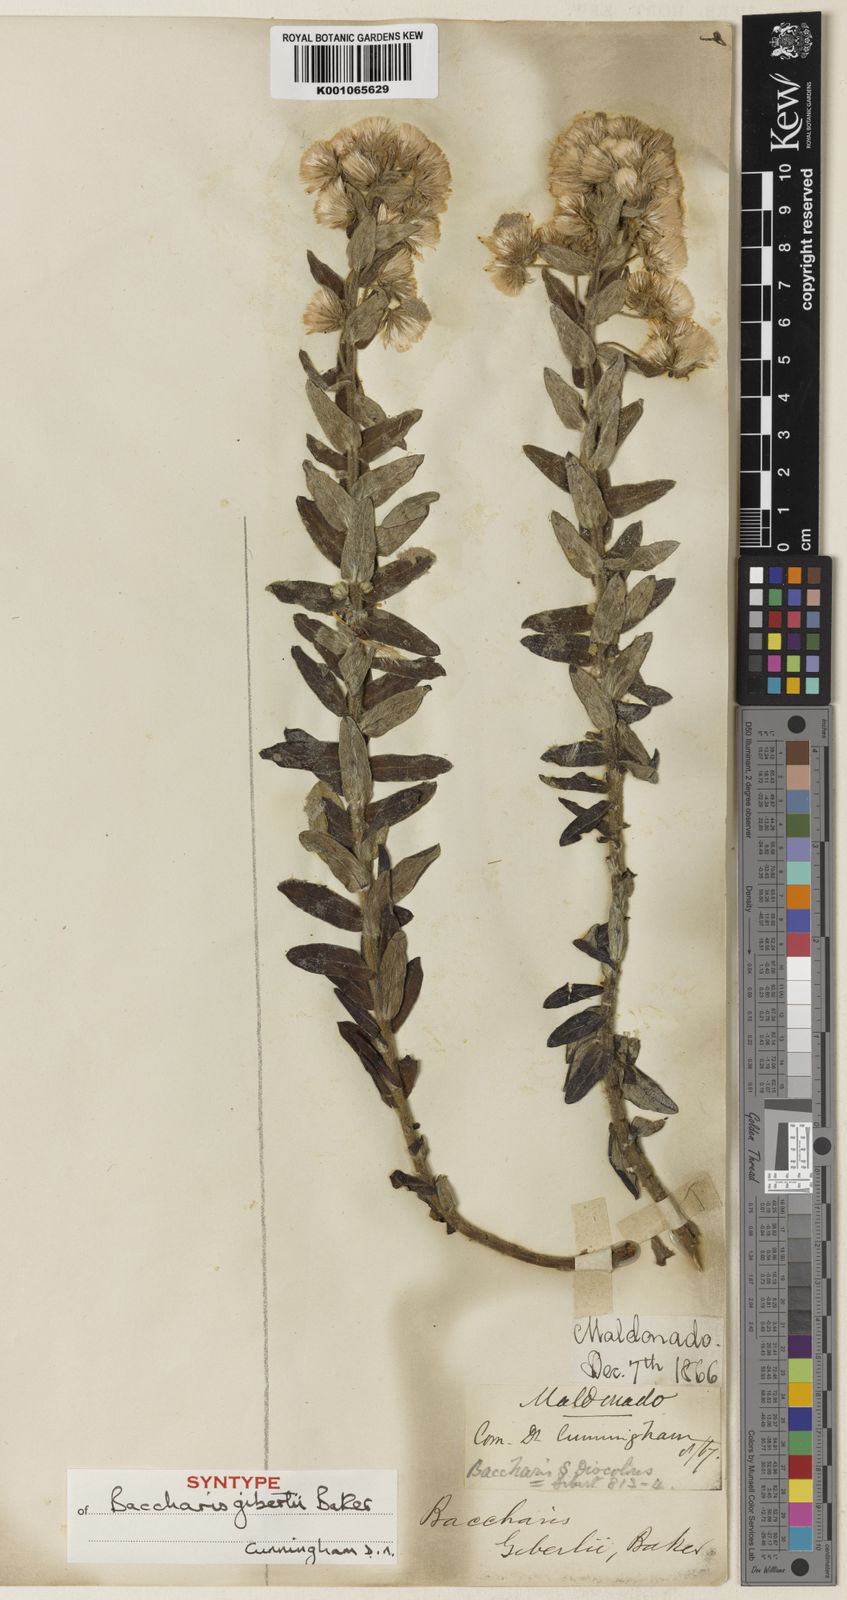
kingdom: Plantae
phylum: Tracheophyta
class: Magnoliopsida
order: Asterales
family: Asteraceae
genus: Baccharis
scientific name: Baccharis gibertii
